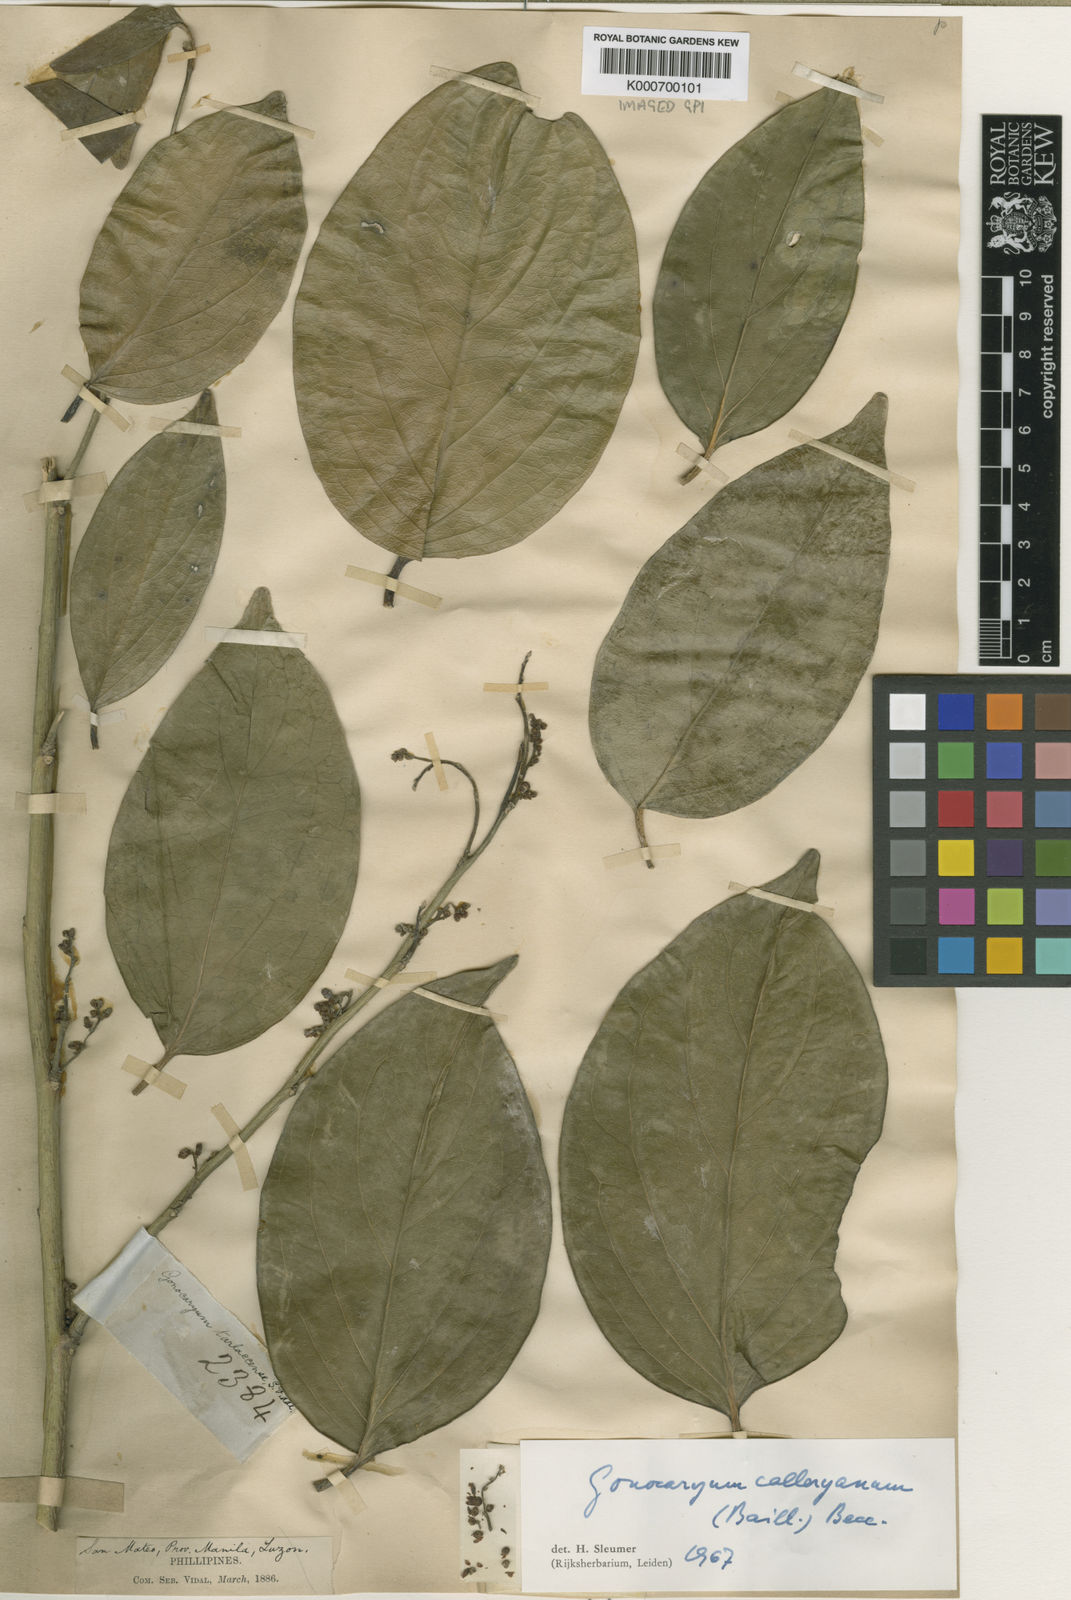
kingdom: Plantae
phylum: Tracheophyta
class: Magnoliopsida
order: Cardiopteridales
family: Cardiopteridaceae
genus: Gonocaryum
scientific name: Gonocaryum calleryanum
